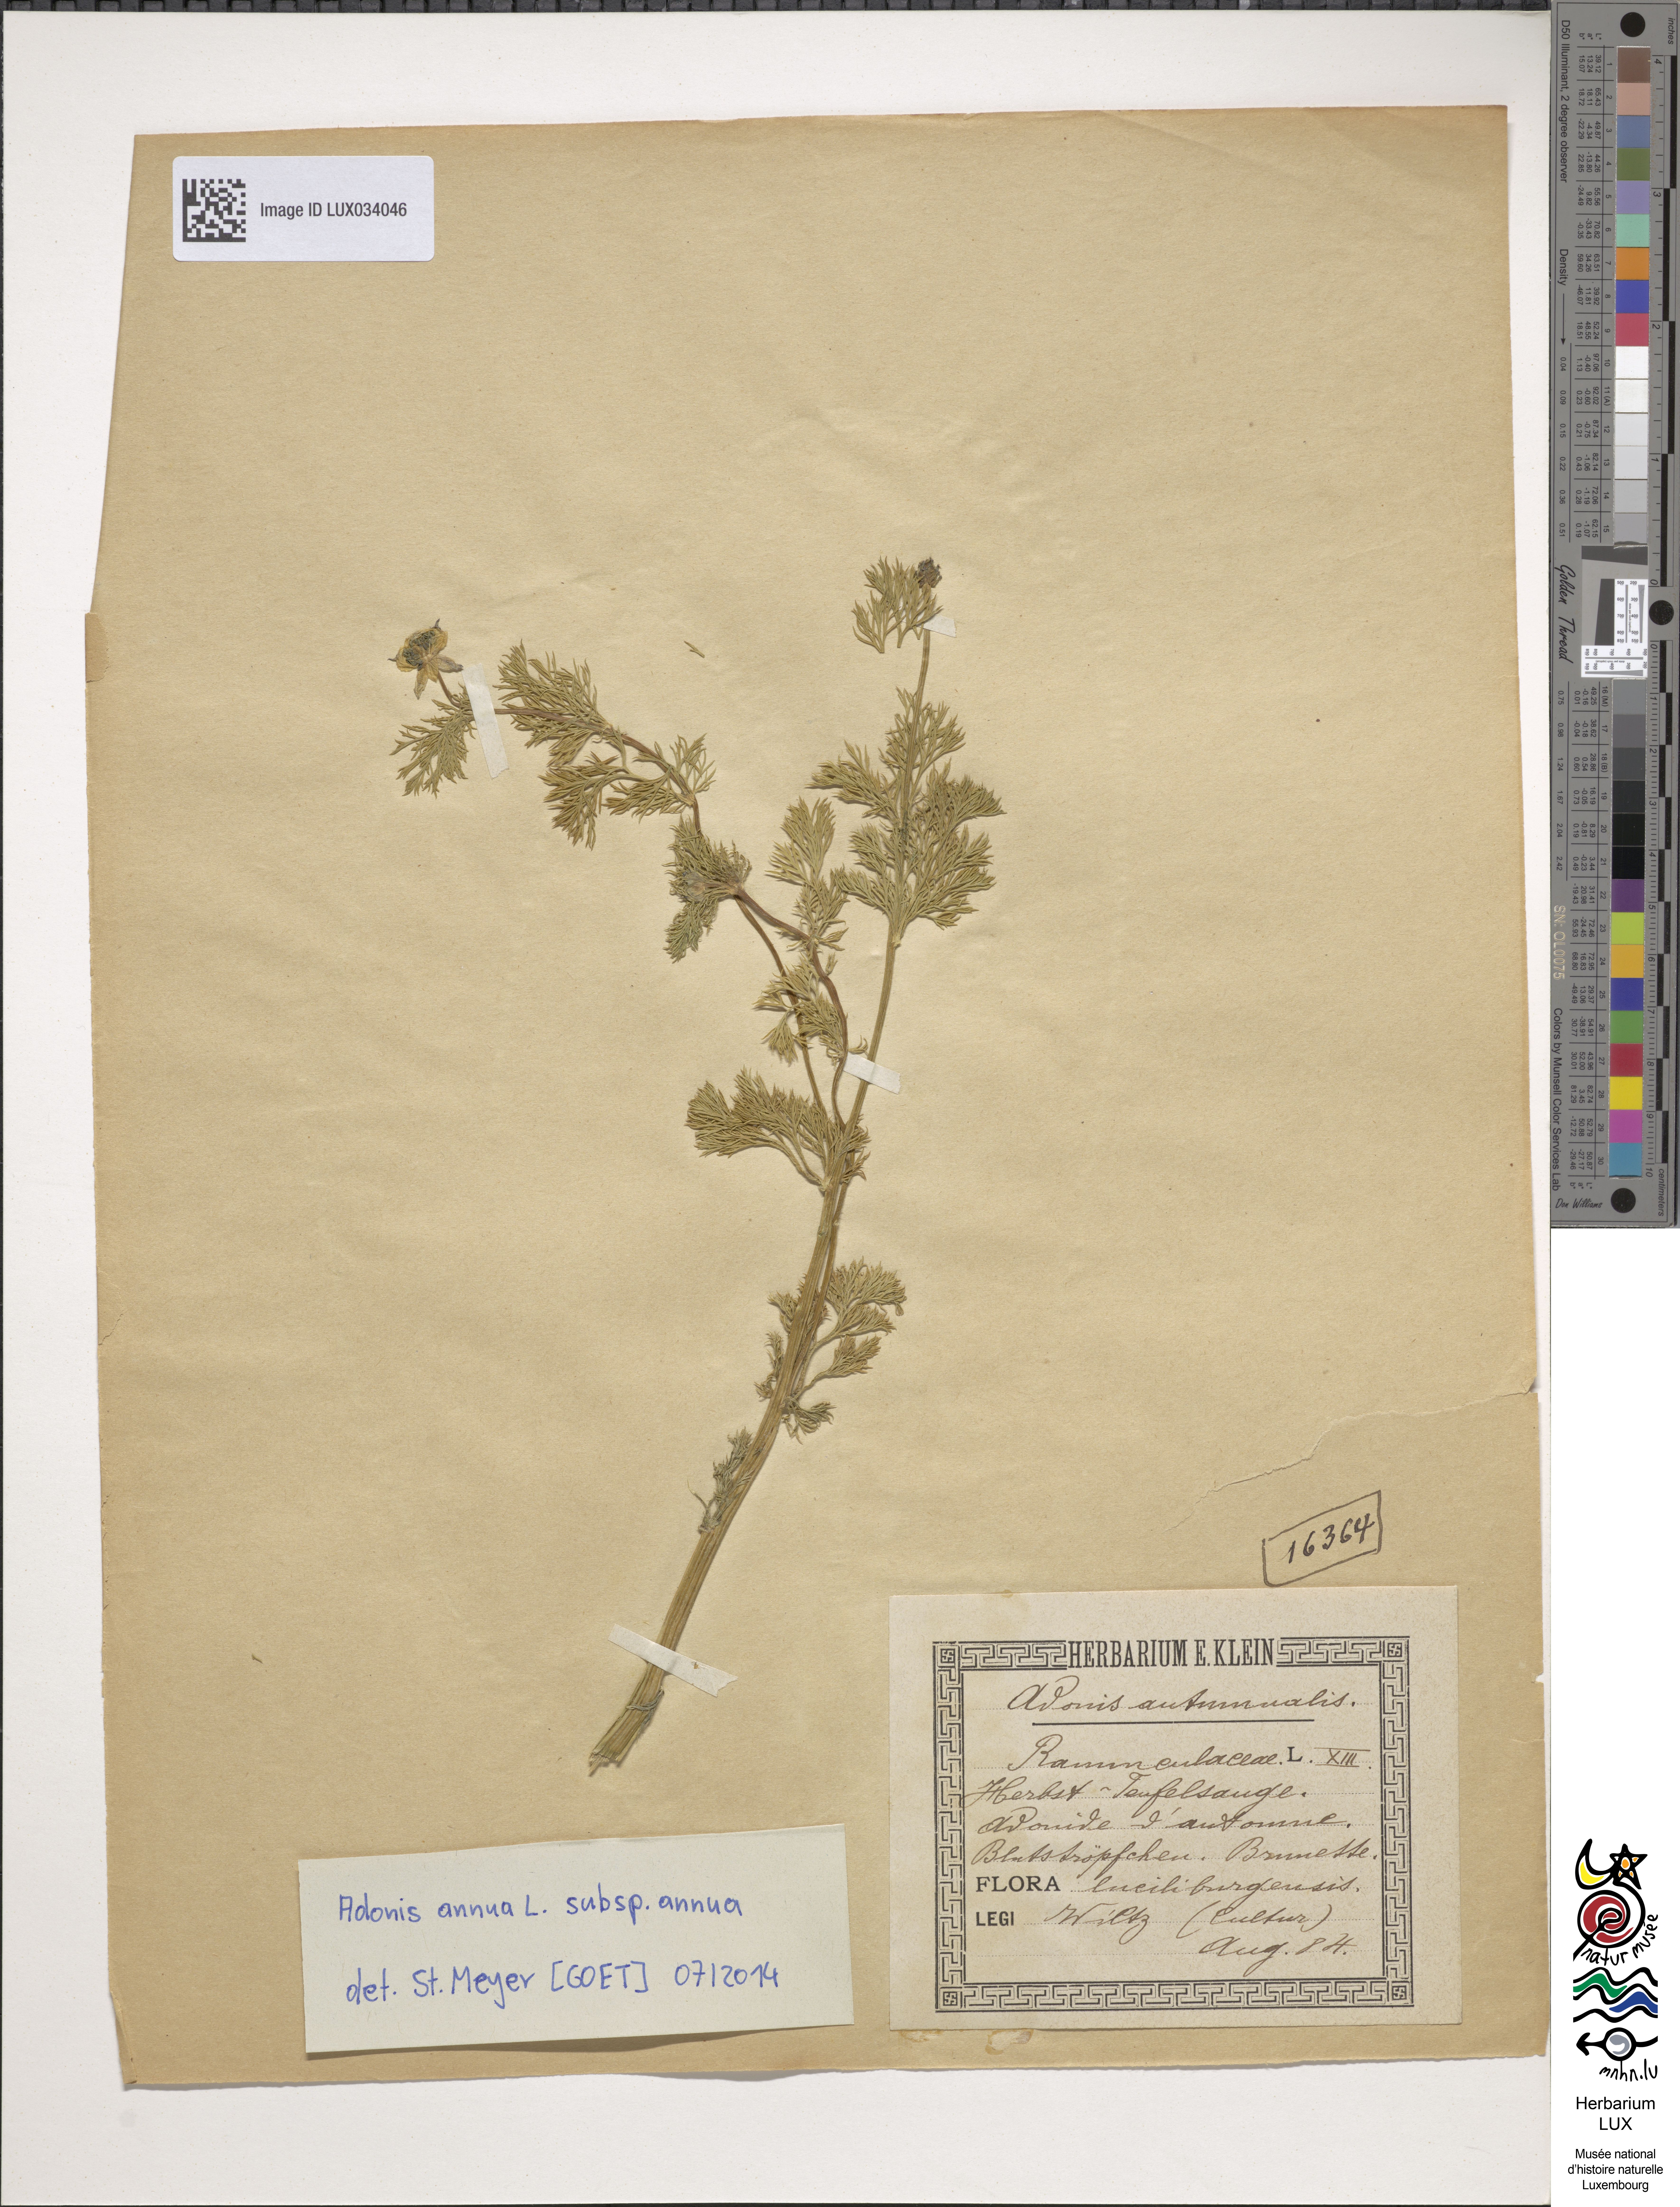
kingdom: Plantae
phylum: Tracheophyta
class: Magnoliopsida
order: Ranunculales
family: Ranunculaceae
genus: Adonis
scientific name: Adonis annua
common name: Pheasant's-eye
